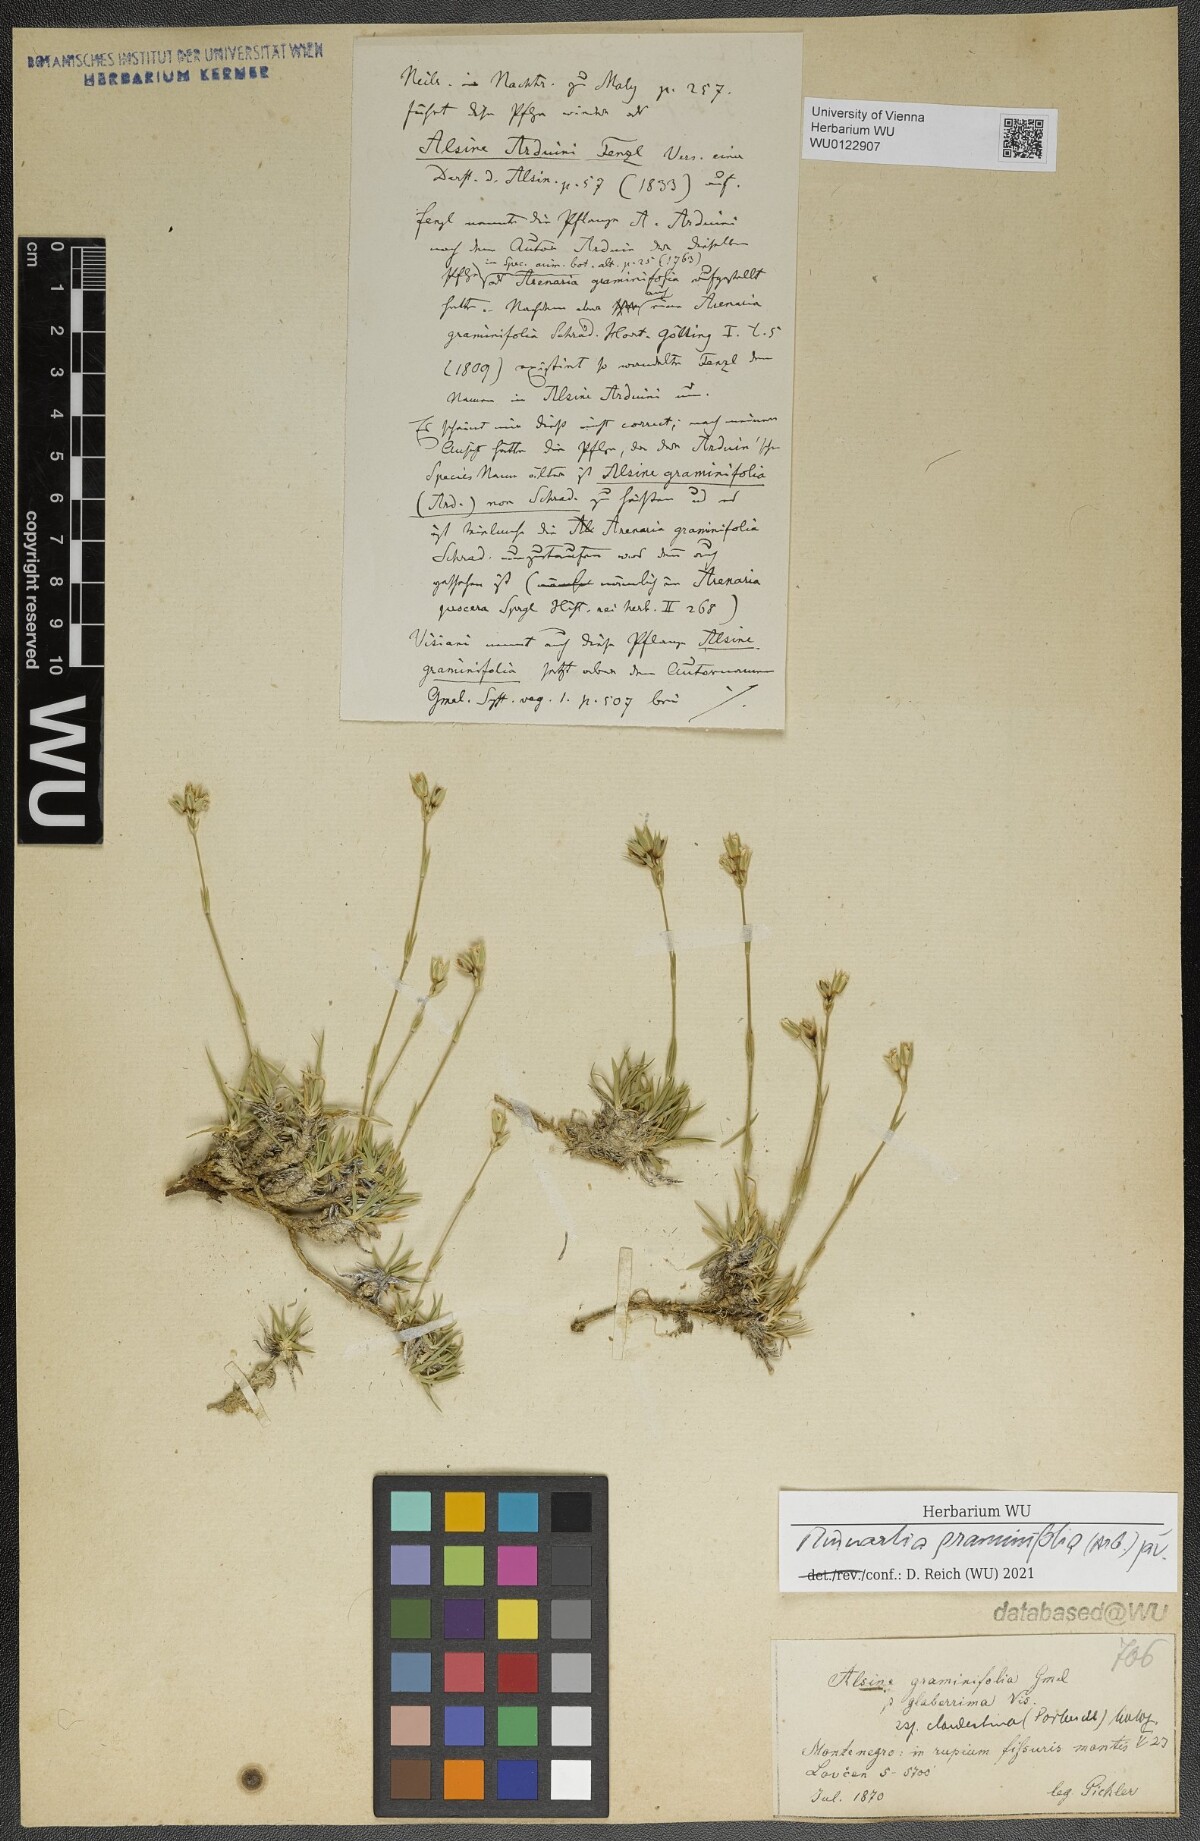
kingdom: Plantae
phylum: Tracheophyta
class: Magnoliopsida
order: Caryophyllales
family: Caryophyllaceae
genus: Mcneillia
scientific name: Mcneillia graminifolia
